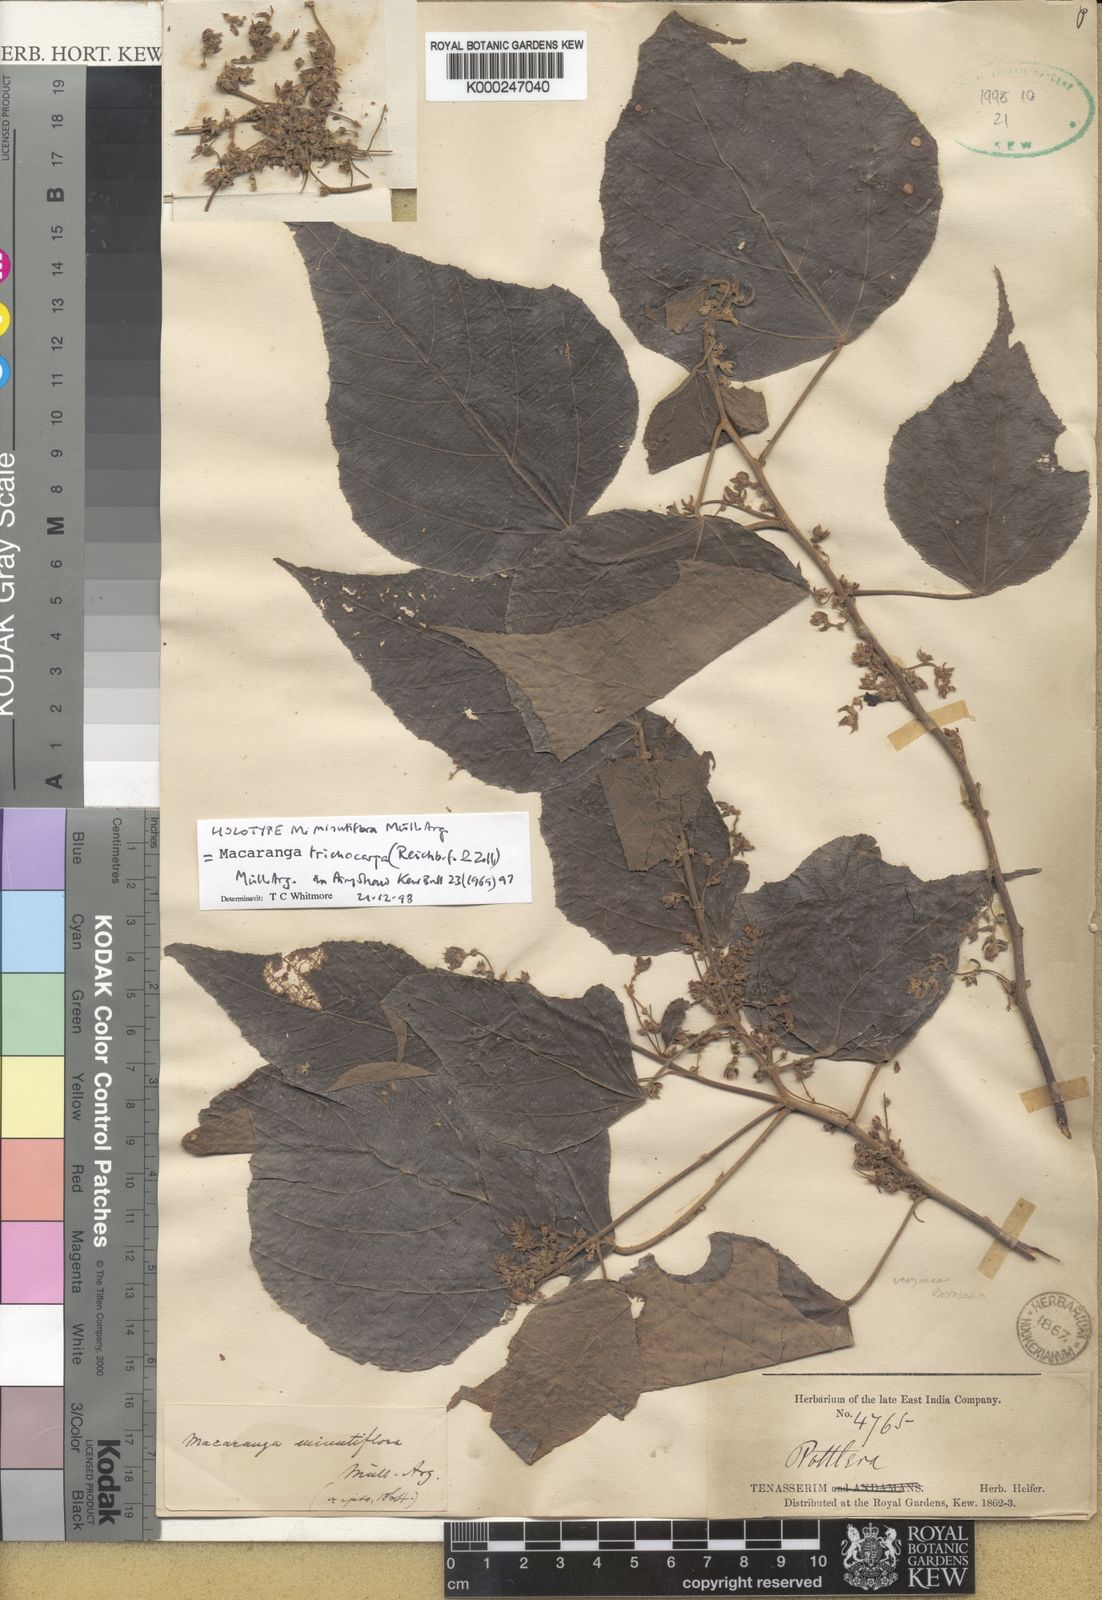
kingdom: Plantae
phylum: Tracheophyta
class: Magnoliopsida
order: Malpighiales
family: Euphorbiaceae
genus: Macaranga
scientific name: Macaranga
